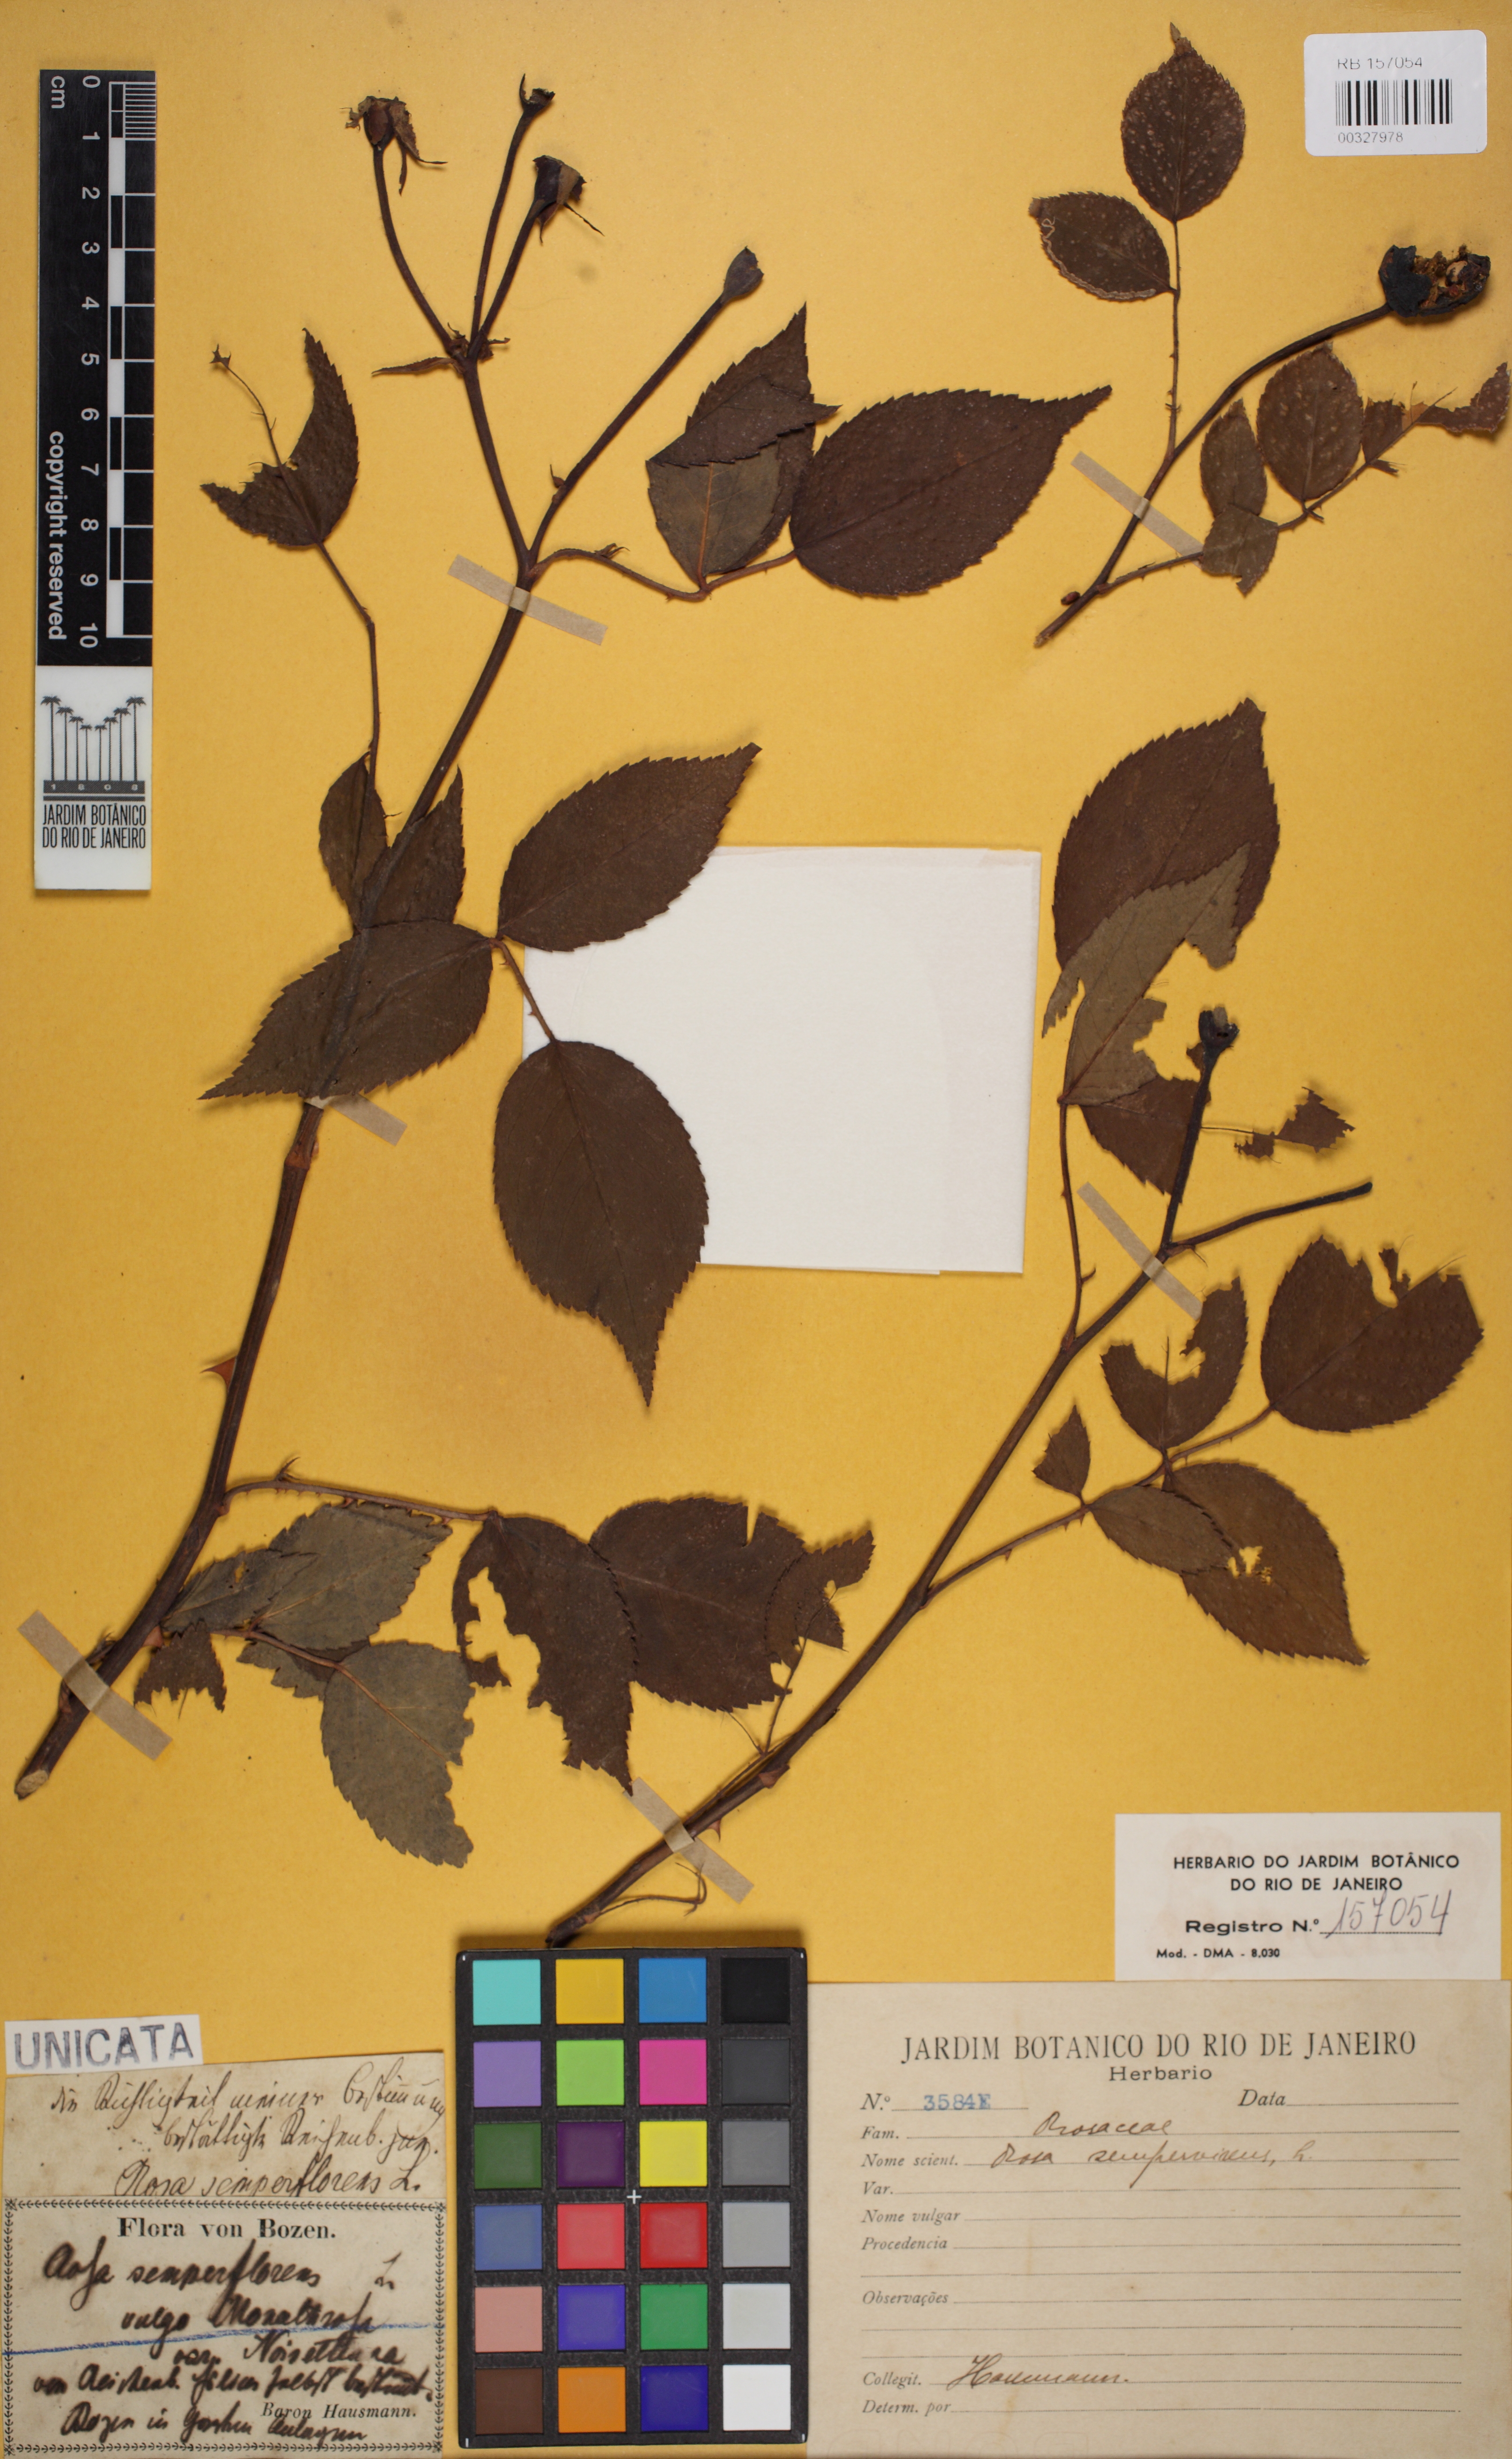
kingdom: Plantae
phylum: Tracheophyta
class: Magnoliopsida
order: Rosales
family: Rosaceae
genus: Rosa
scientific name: Rosa sempervirens
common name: Evergreen rose
